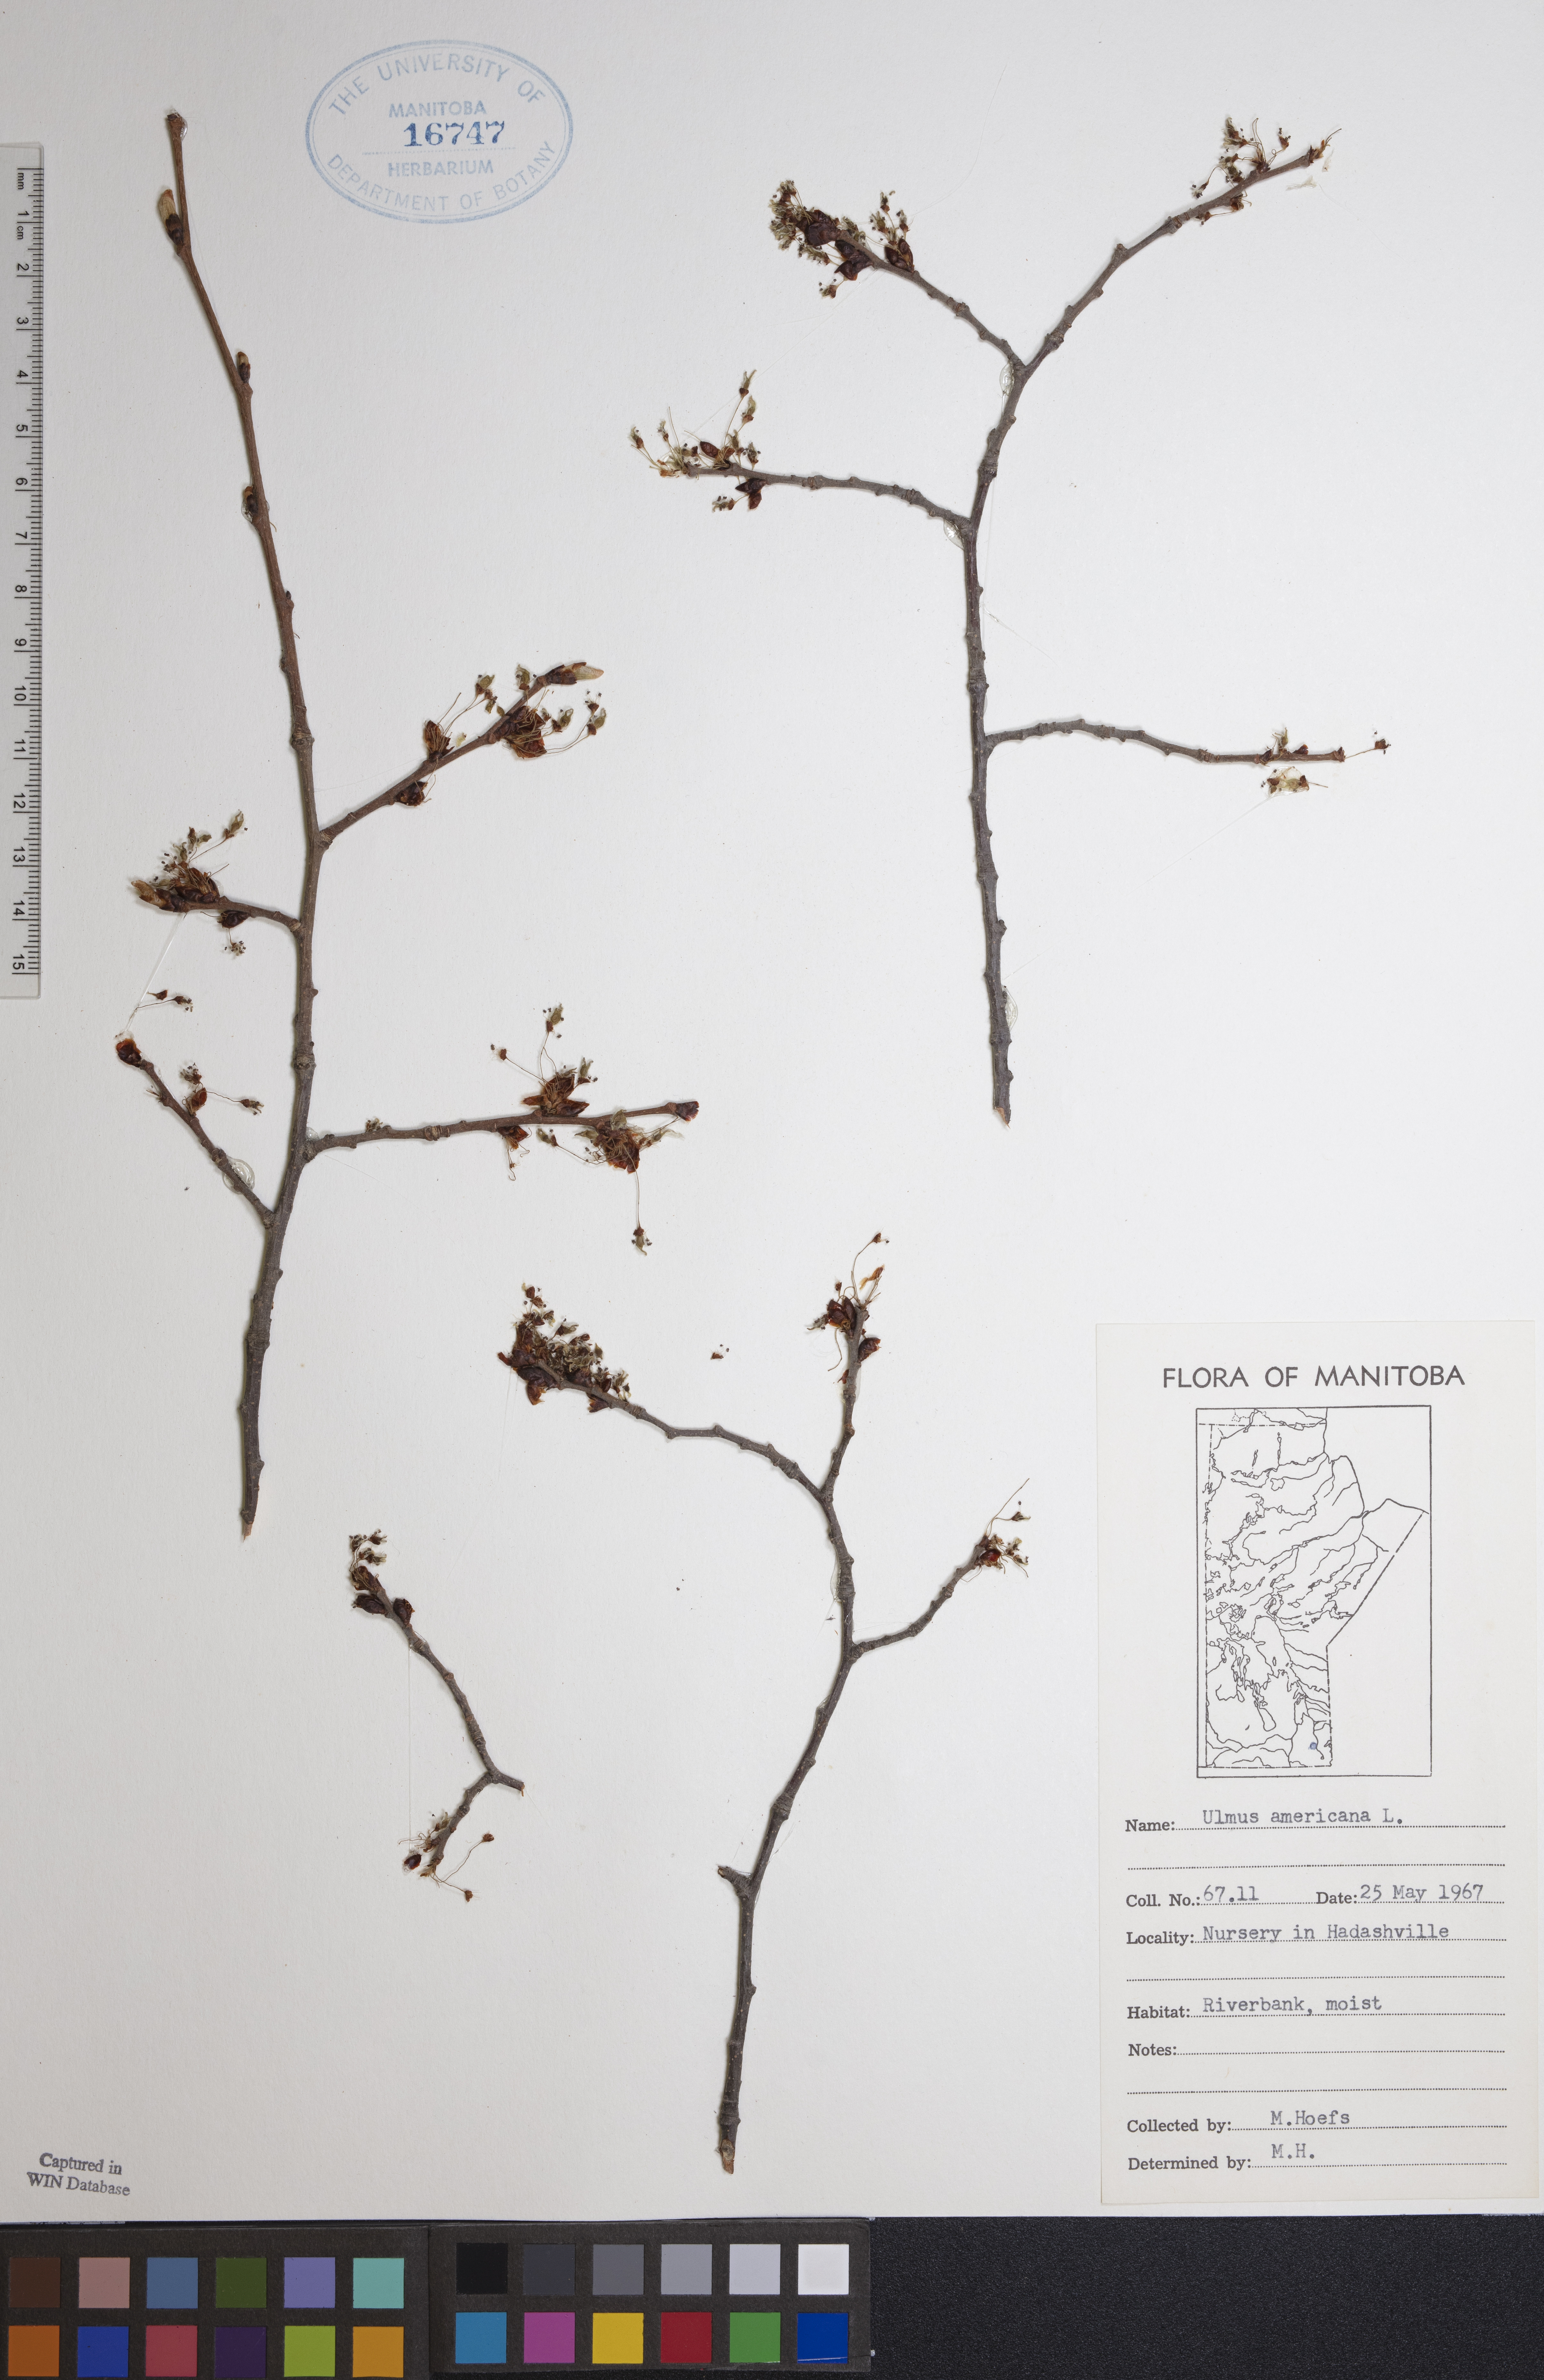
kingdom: Plantae
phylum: Tracheophyta
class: Magnoliopsida
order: Rosales
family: Ulmaceae
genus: Ulmus
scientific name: Ulmus americana
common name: American elm
